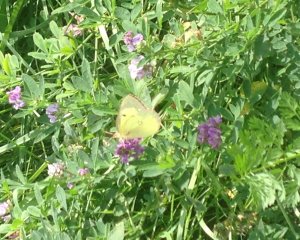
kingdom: Animalia
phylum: Arthropoda
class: Insecta
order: Lepidoptera
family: Pieridae
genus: Colias
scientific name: Colias philodice
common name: Clouded Sulphur
